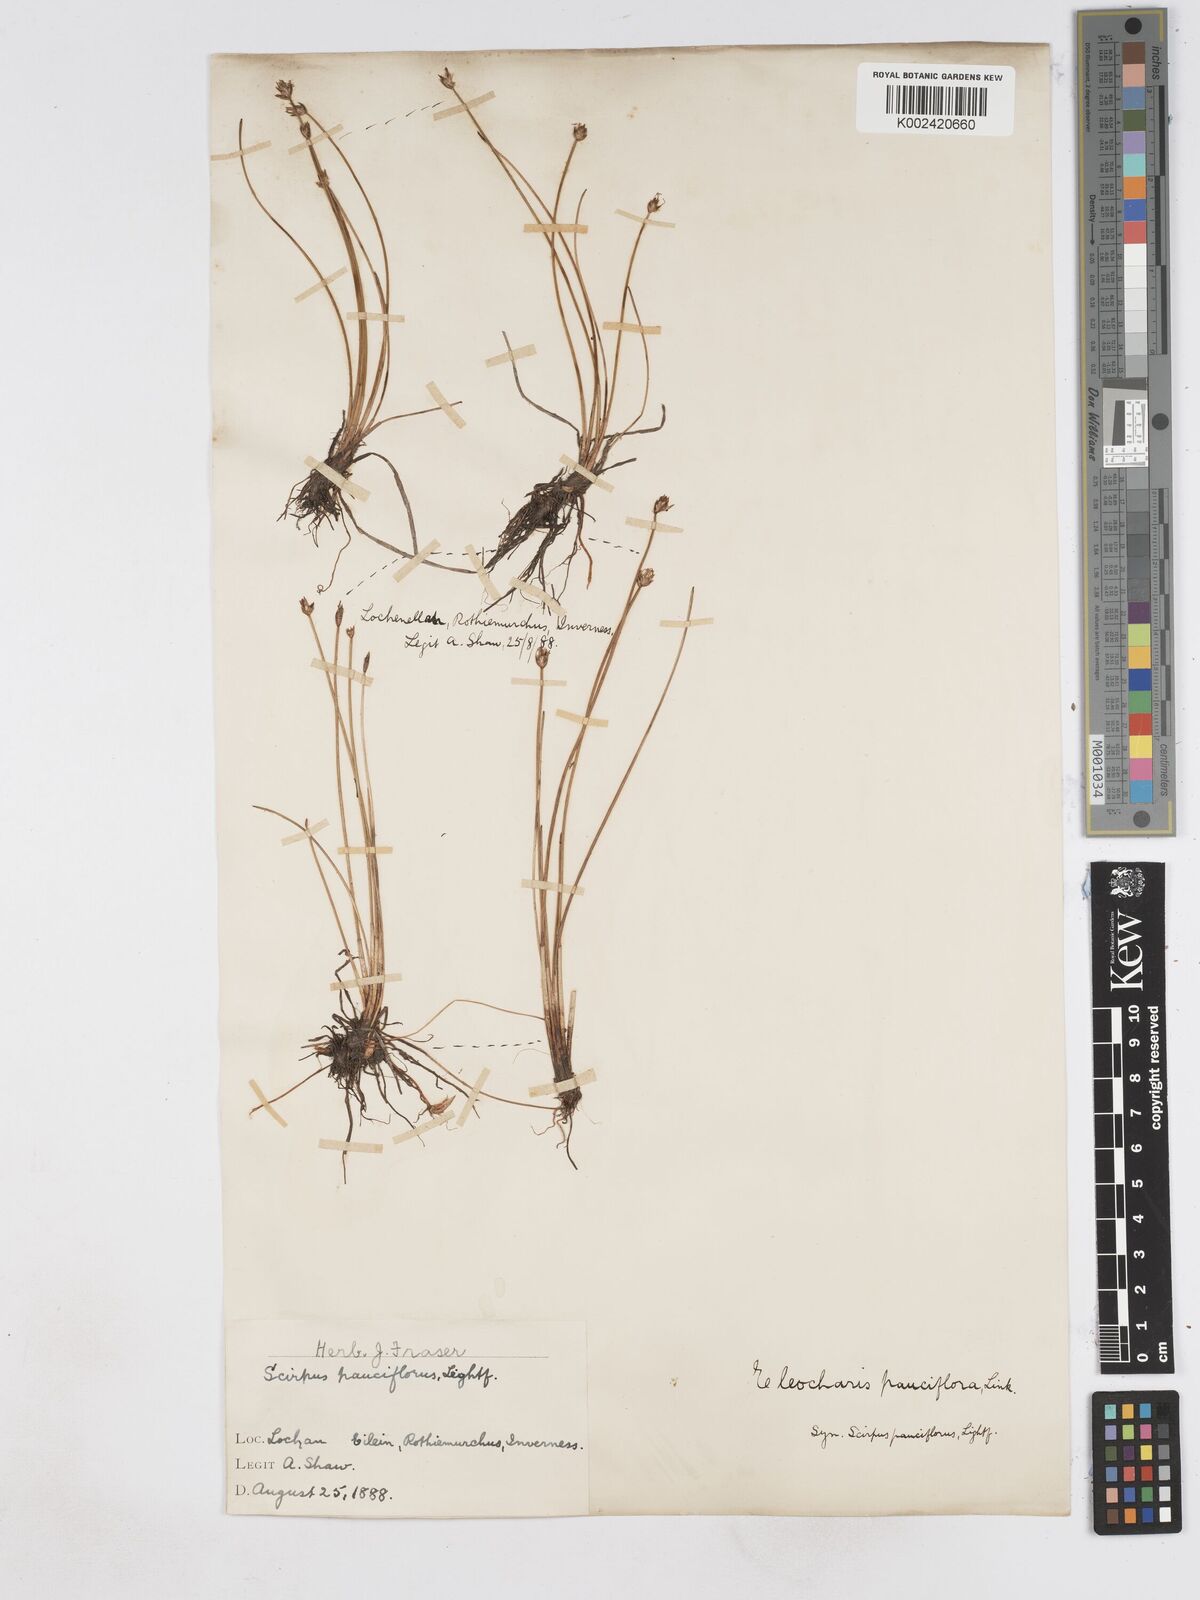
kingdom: Plantae
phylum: Tracheophyta
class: Liliopsida
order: Poales
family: Cyperaceae
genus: Eleocharis
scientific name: Eleocharis quinqueflora
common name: Few-flowered spike-rush
